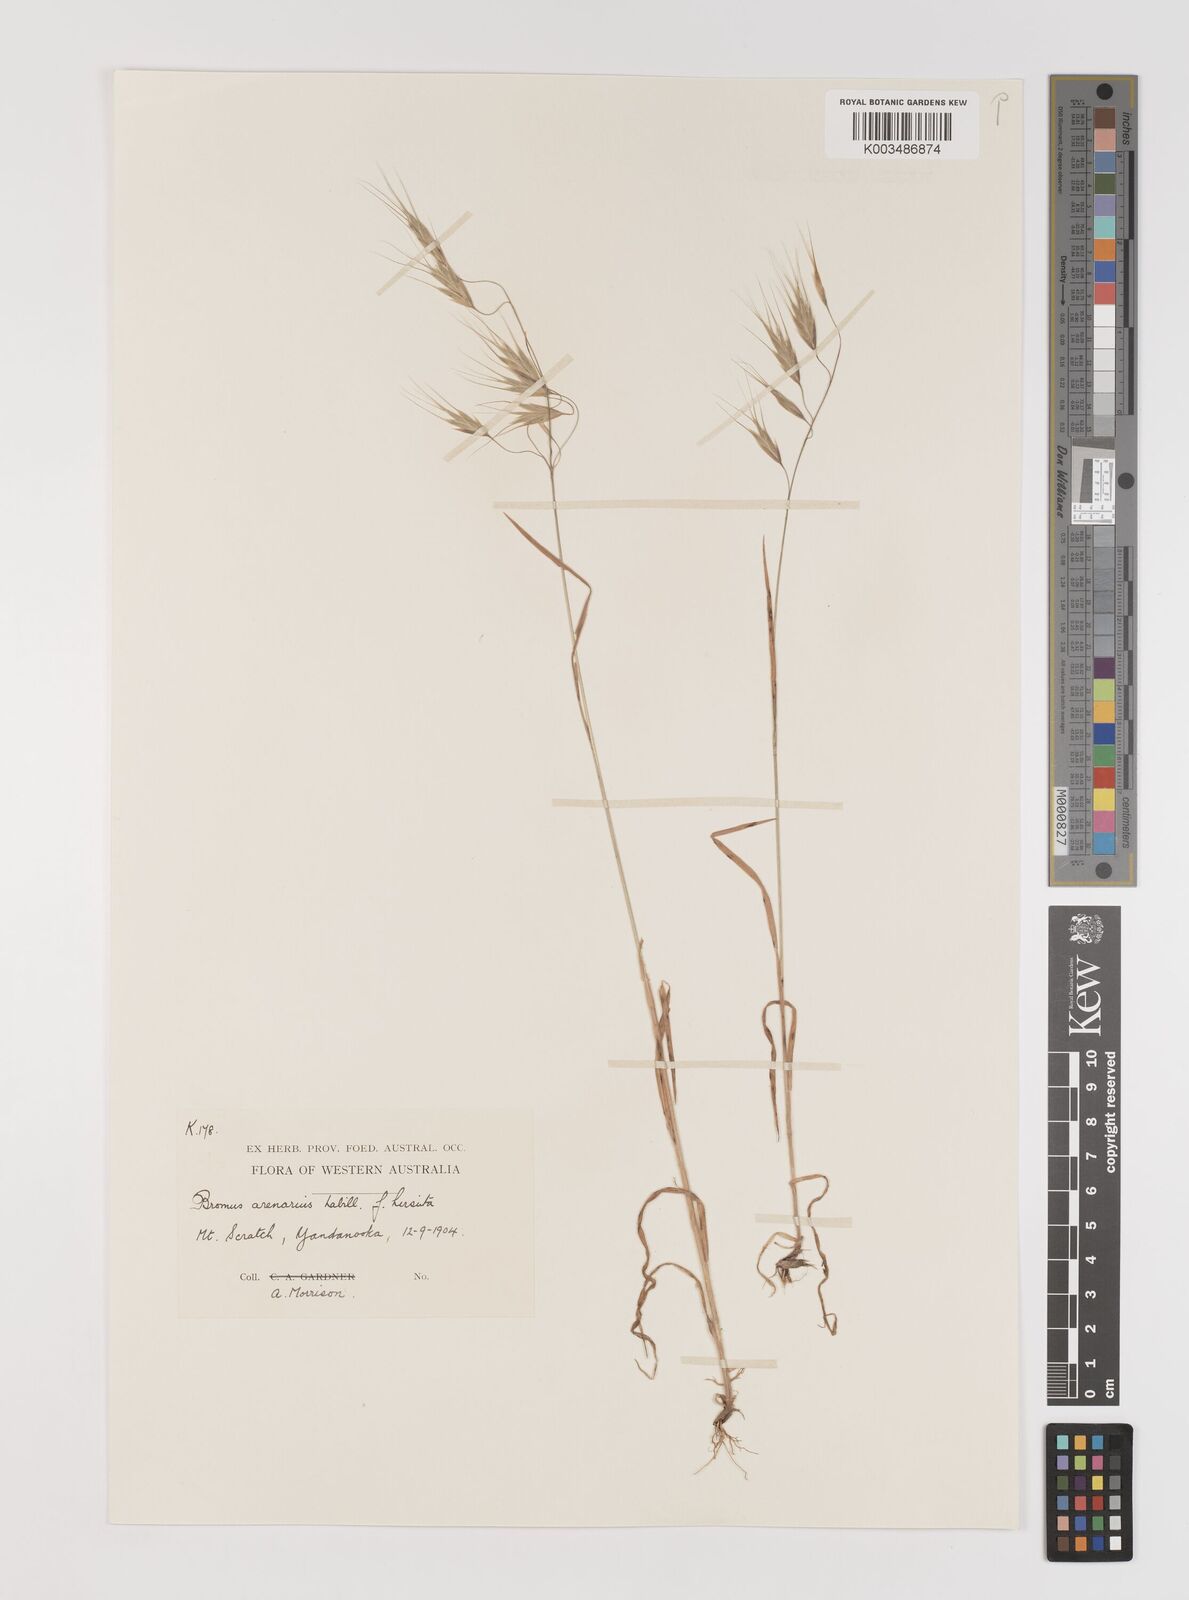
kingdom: Plantae
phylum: Tracheophyta
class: Liliopsida
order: Poales
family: Poaceae
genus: Bromus
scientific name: Bromus arenarius
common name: Australian brome
